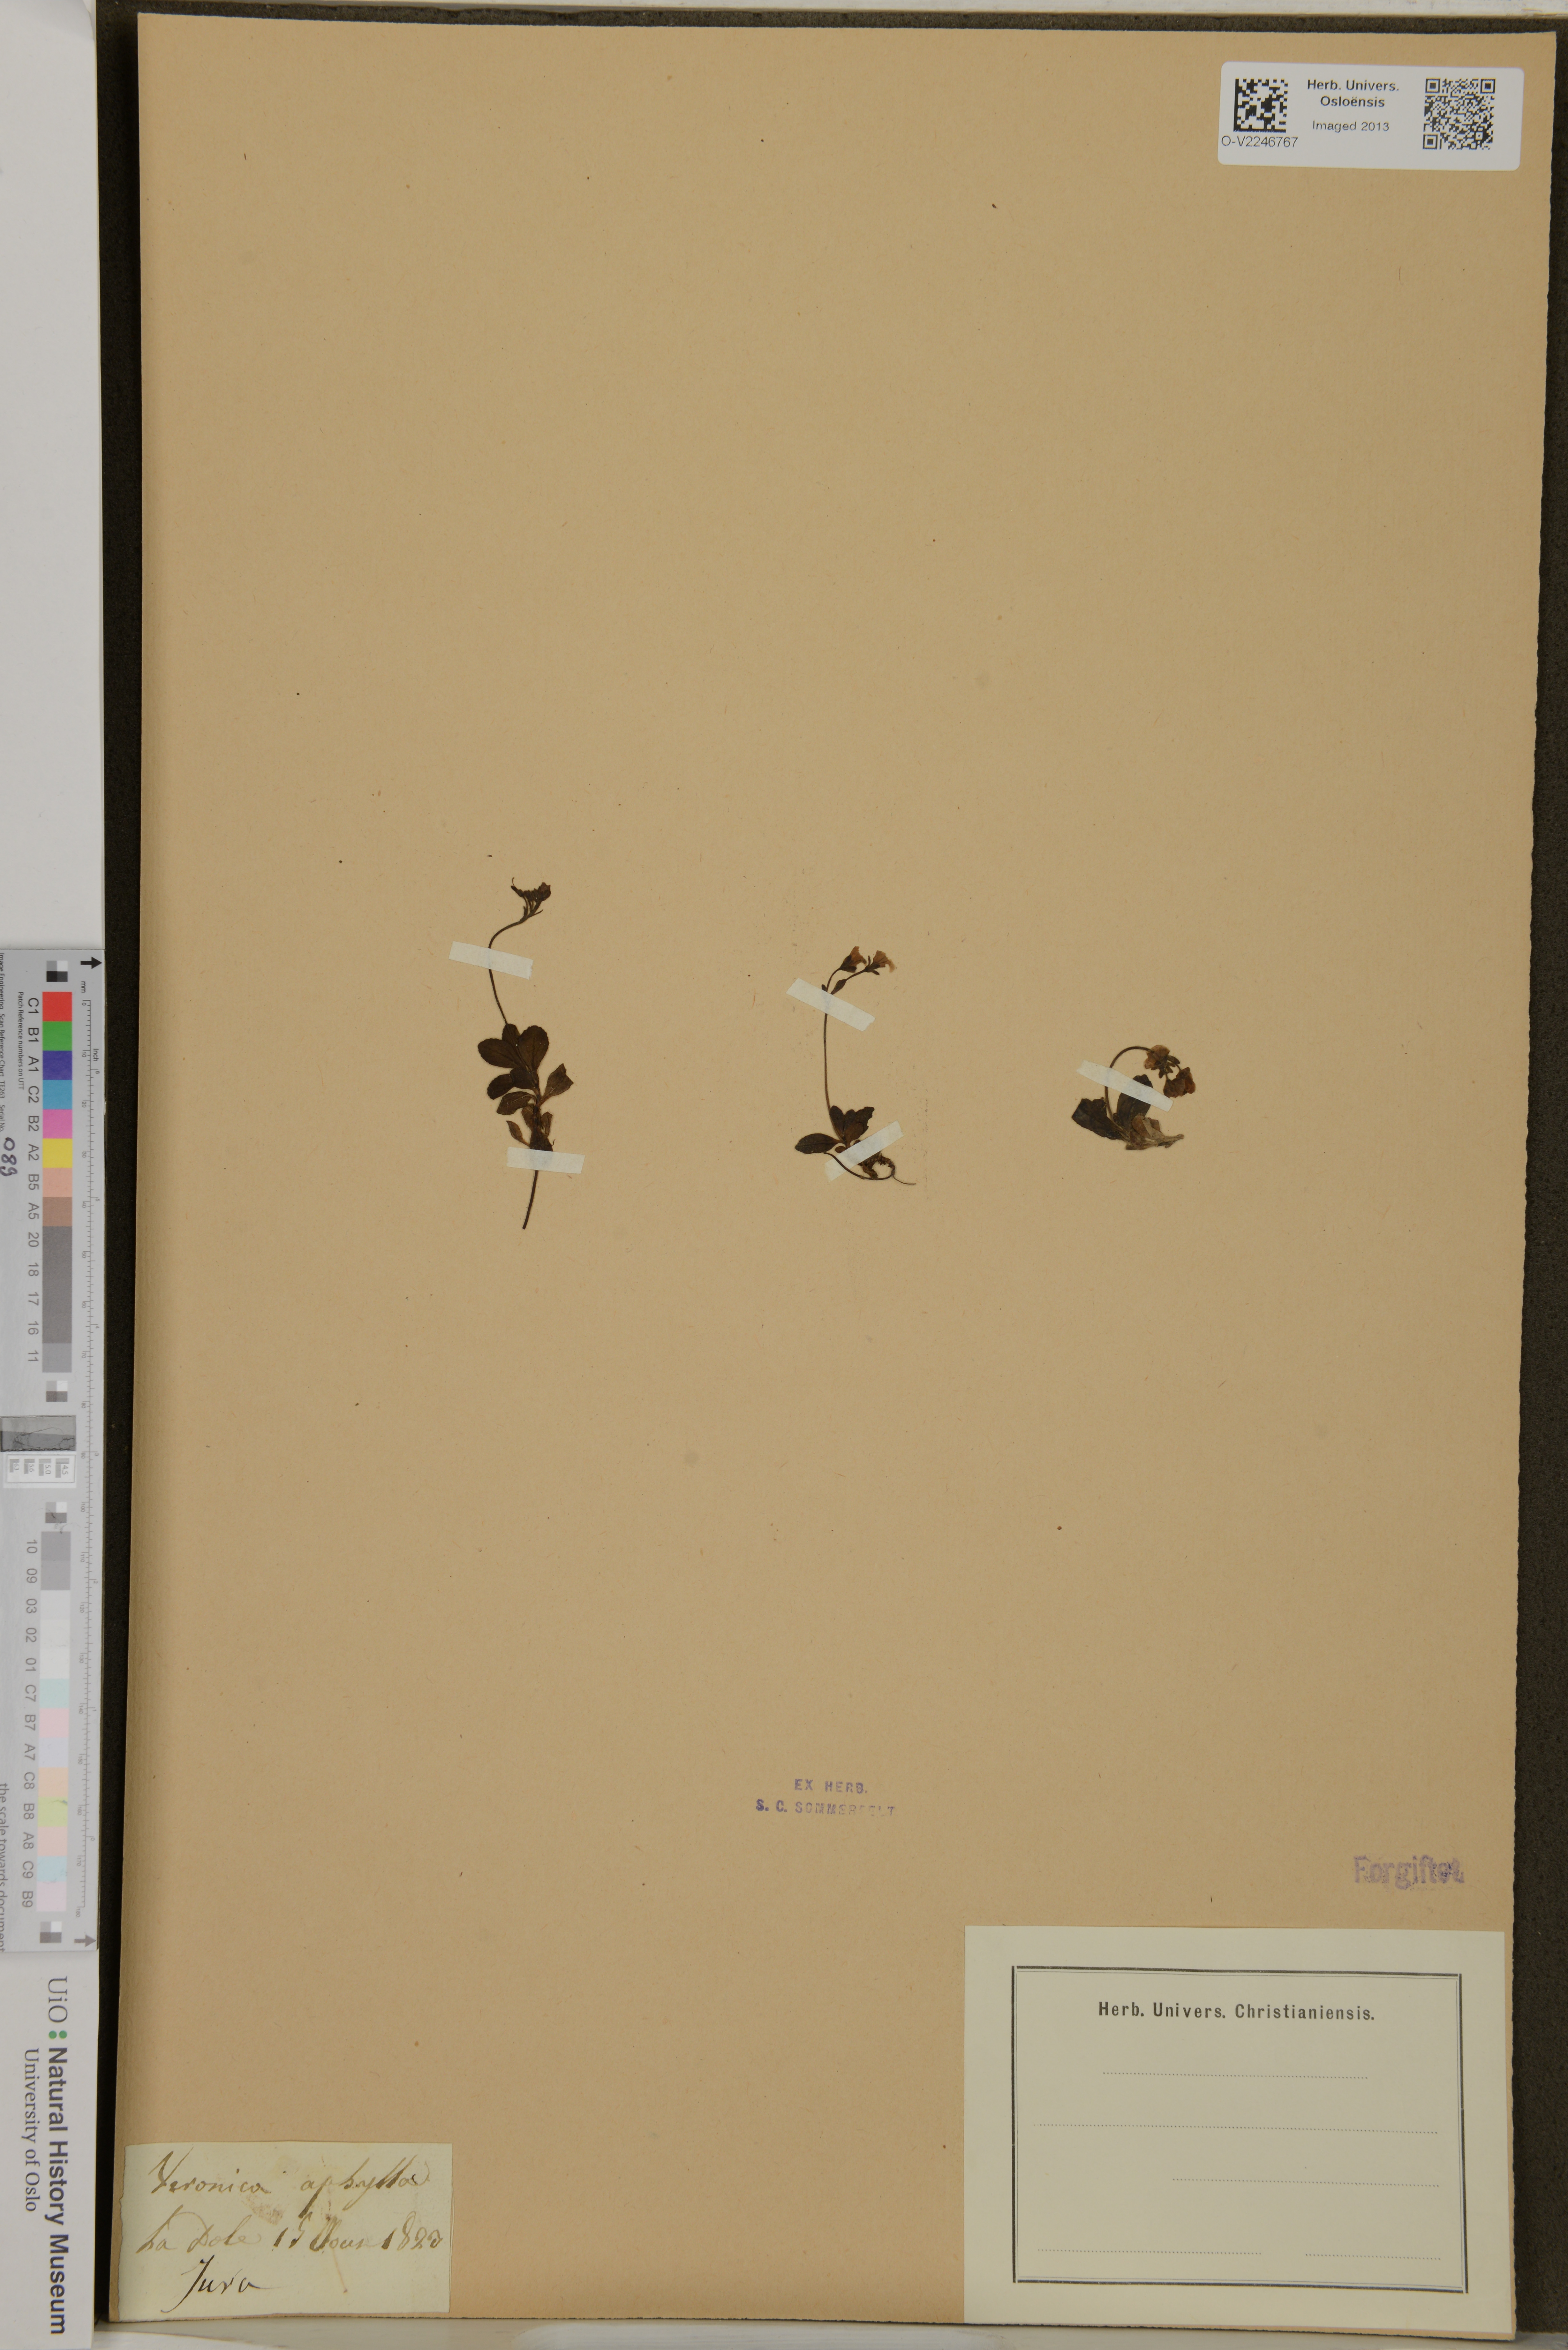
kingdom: Plantae
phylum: Tracheophyta
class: Magnoliopsida
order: Lamiales
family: Plantaginaceae
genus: Veronica
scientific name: Veronica aphylla
